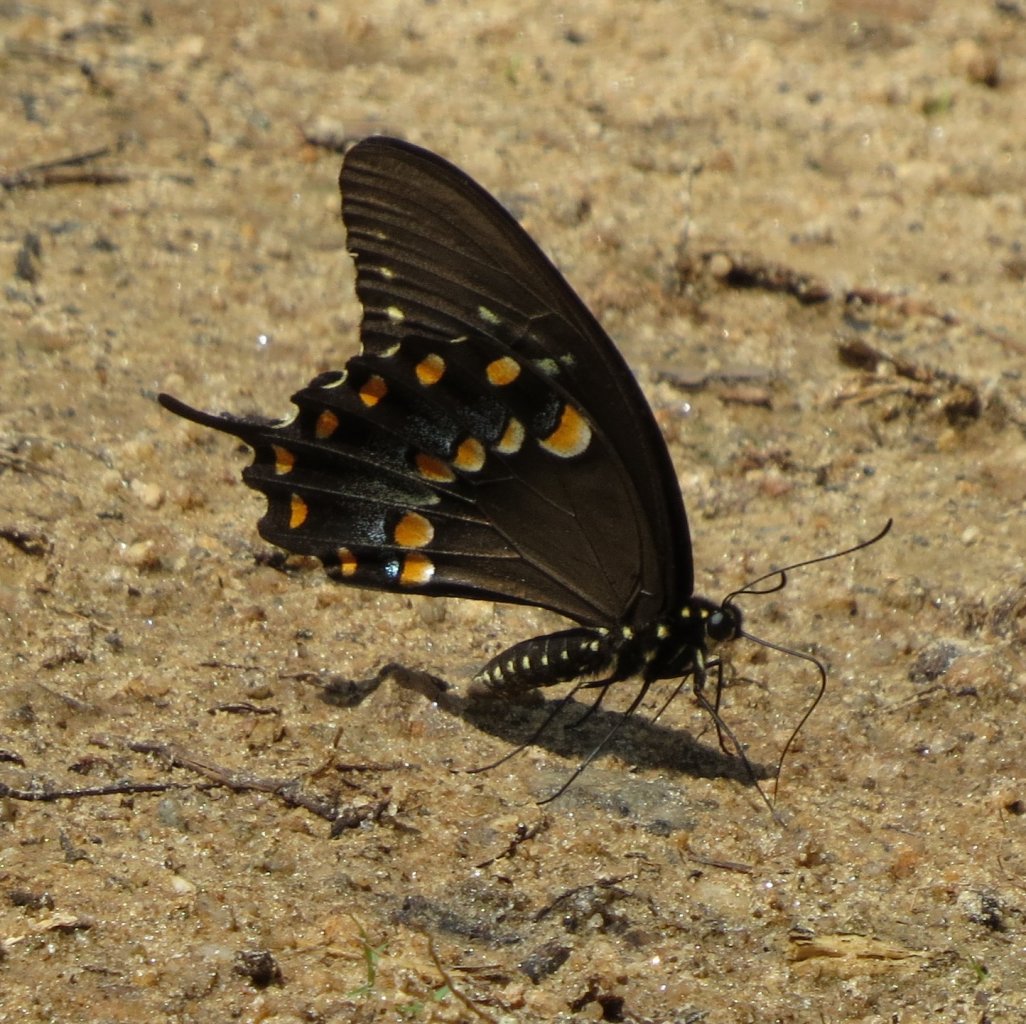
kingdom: Animalia
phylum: Arthropoda
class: Insecta
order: Lepidoptera
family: Papilionidae
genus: Pterourus
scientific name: Pterourus troilus
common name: Spicebush Swallowtail
